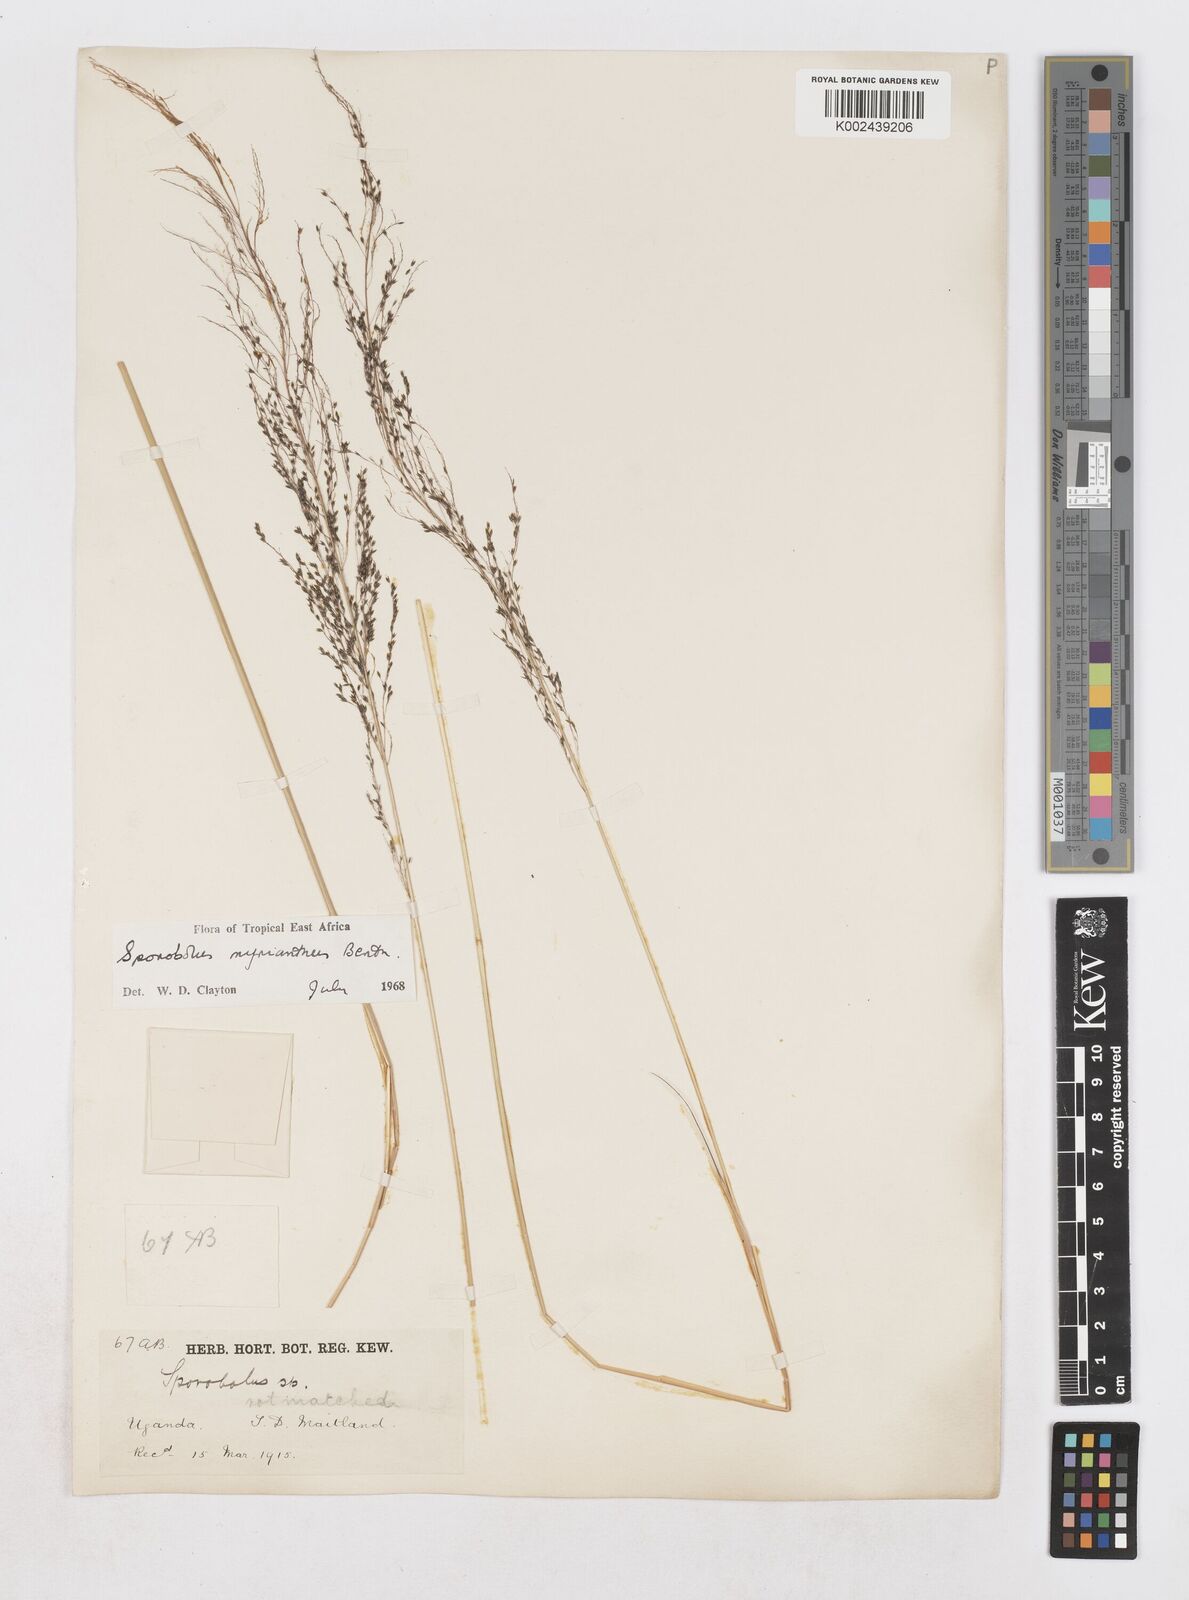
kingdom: Plantae
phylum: Tracheophyta
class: Liliopsida
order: Poales
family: Poaceae
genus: Sporobolus
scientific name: Sporobolus myrianthus
